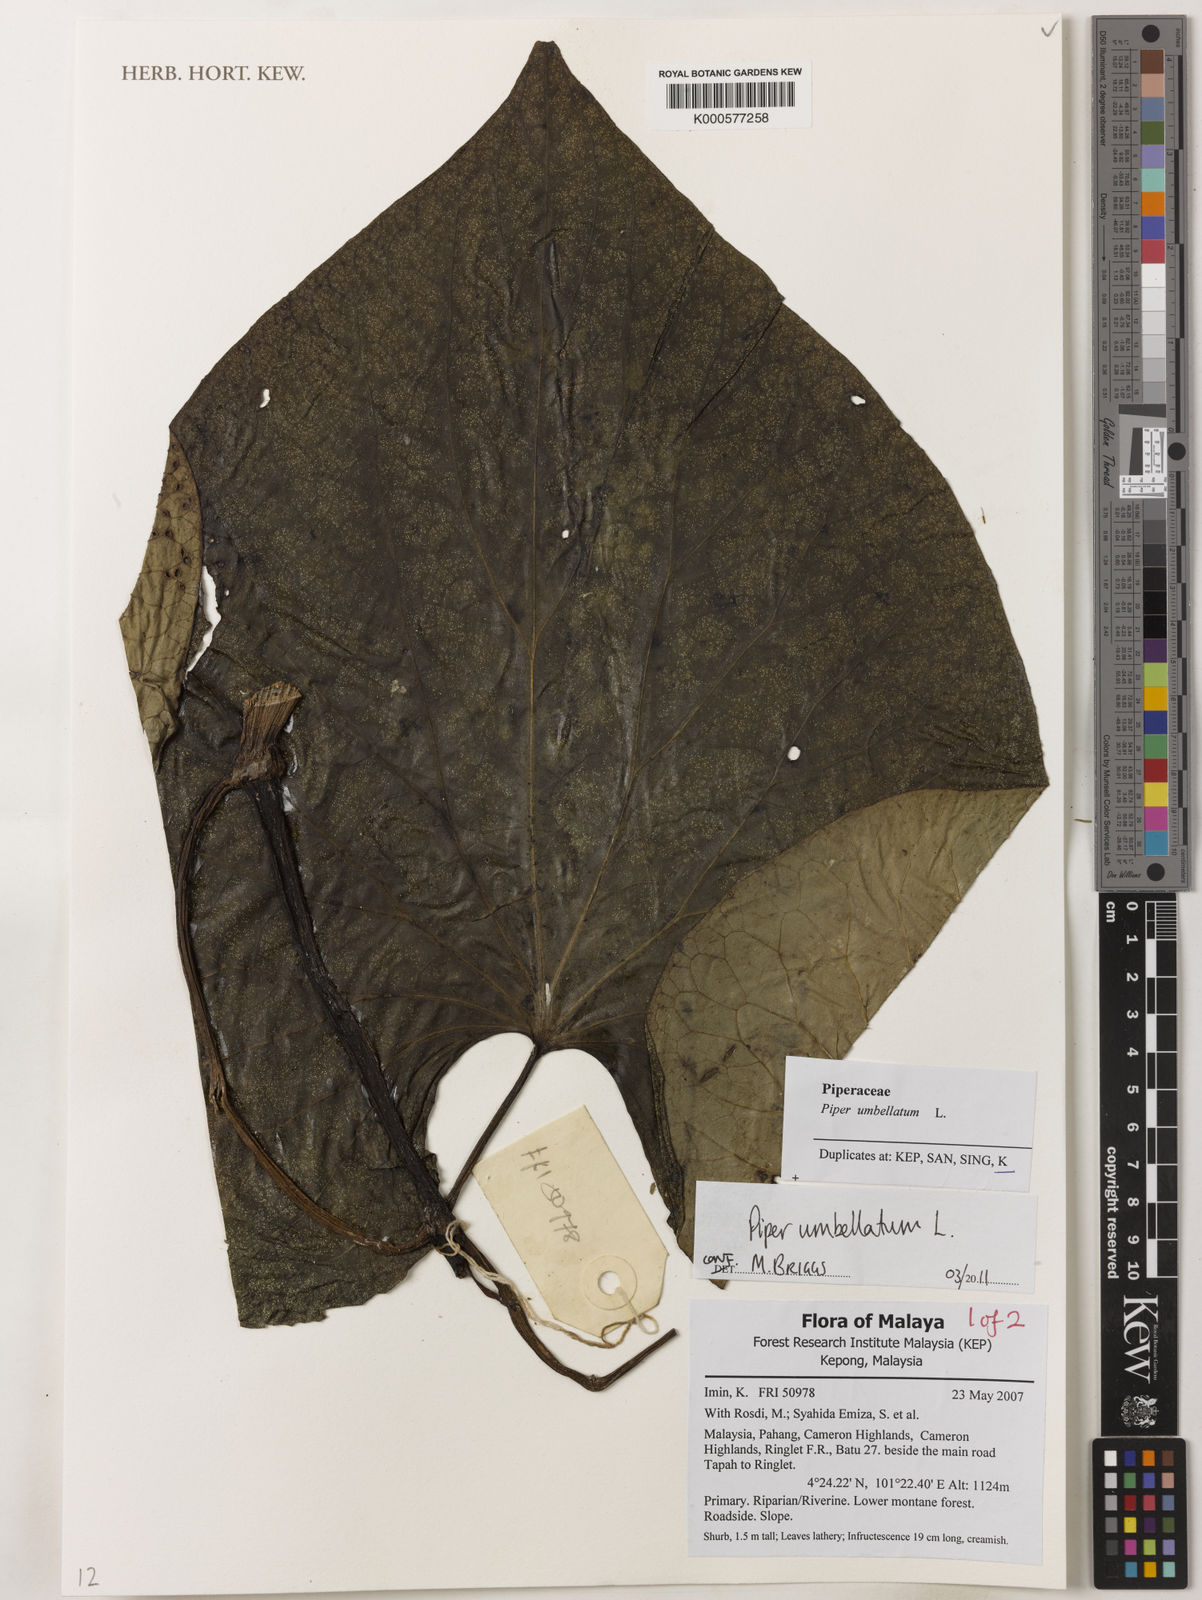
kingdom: Plantae
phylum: Tracheophyta
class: Magnoliopsida
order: Piperales
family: Piperaceae
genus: Piper
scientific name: Piper umbellatum
